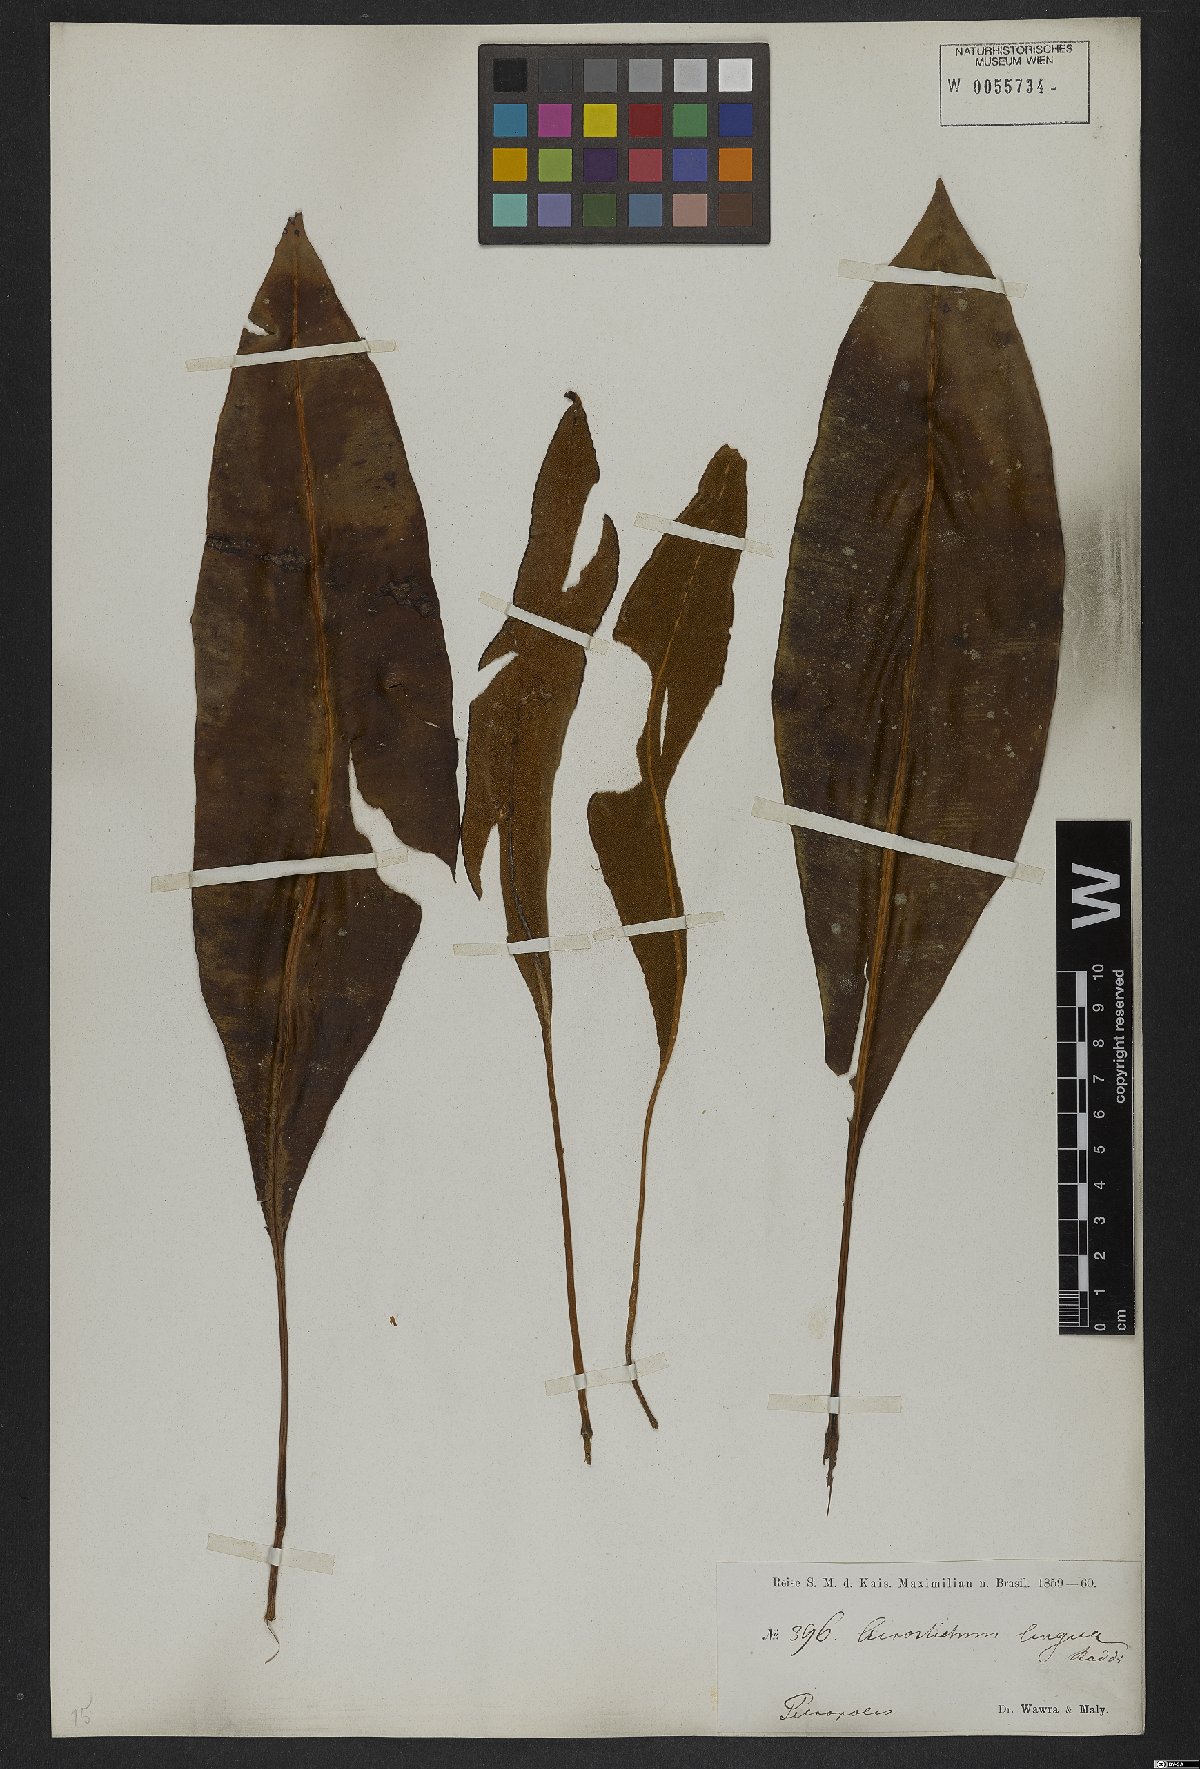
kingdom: Plantae
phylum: Tracheophyta
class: Polypodiopsida
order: Polypodiales
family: Dryopteridaceae
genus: Elaphoglossum
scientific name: Elaphoglossum brachyneuron
